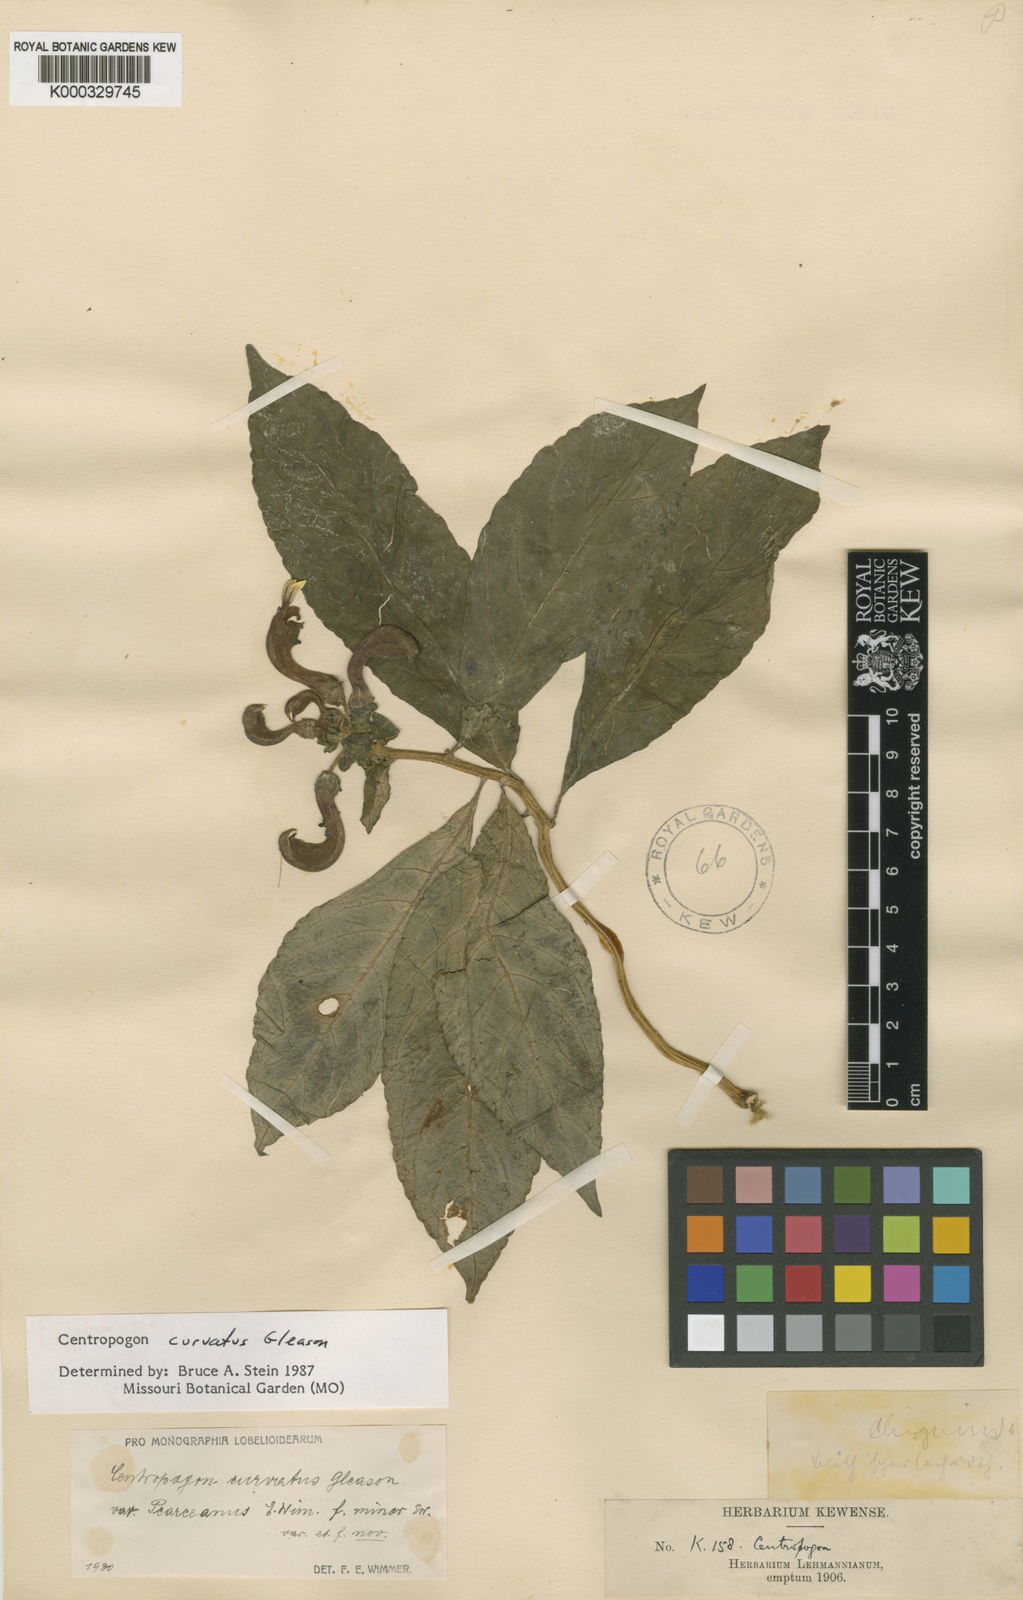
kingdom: Plantae
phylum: Tracheophyta
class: Magnoliopsida
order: Asterales
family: Campanulaceae
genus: Centropogon
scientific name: Centropogon curvatus
